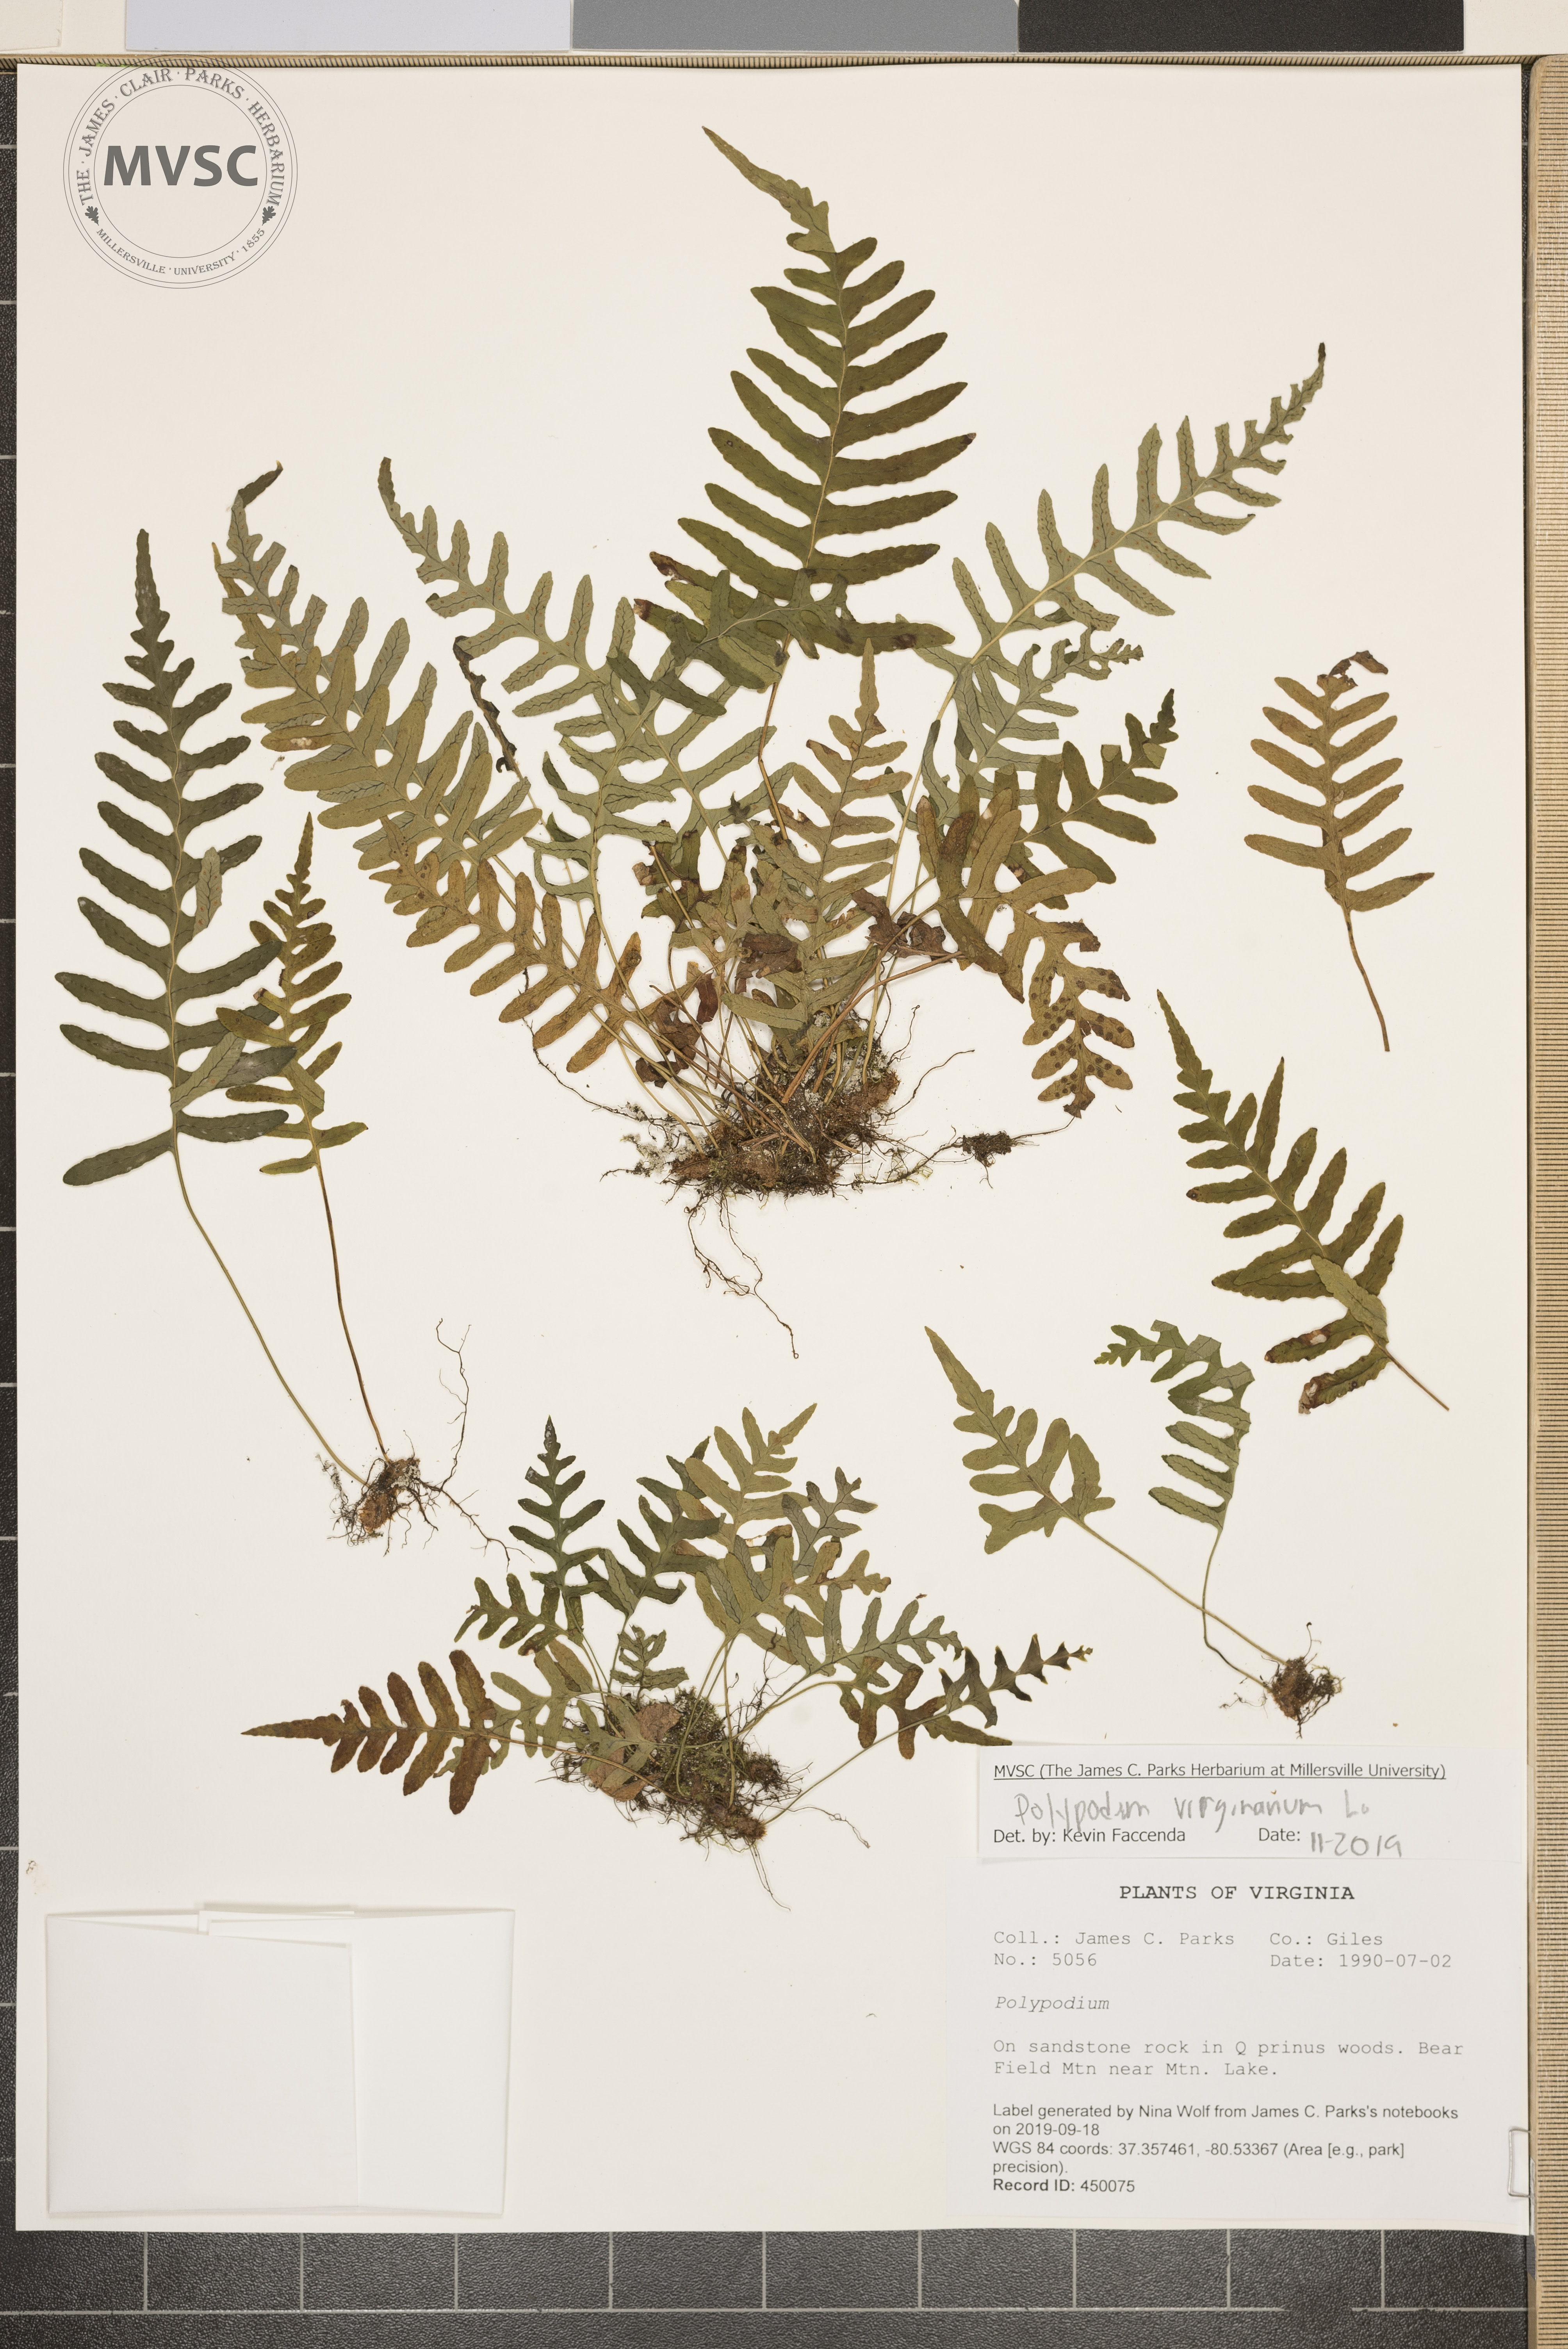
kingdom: Plantae
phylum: Tracheophyta
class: Polypodiopsida
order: Polypodiales
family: Polypodiaceae
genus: Polypodium
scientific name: Polypodium virginianum
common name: American wall fern
